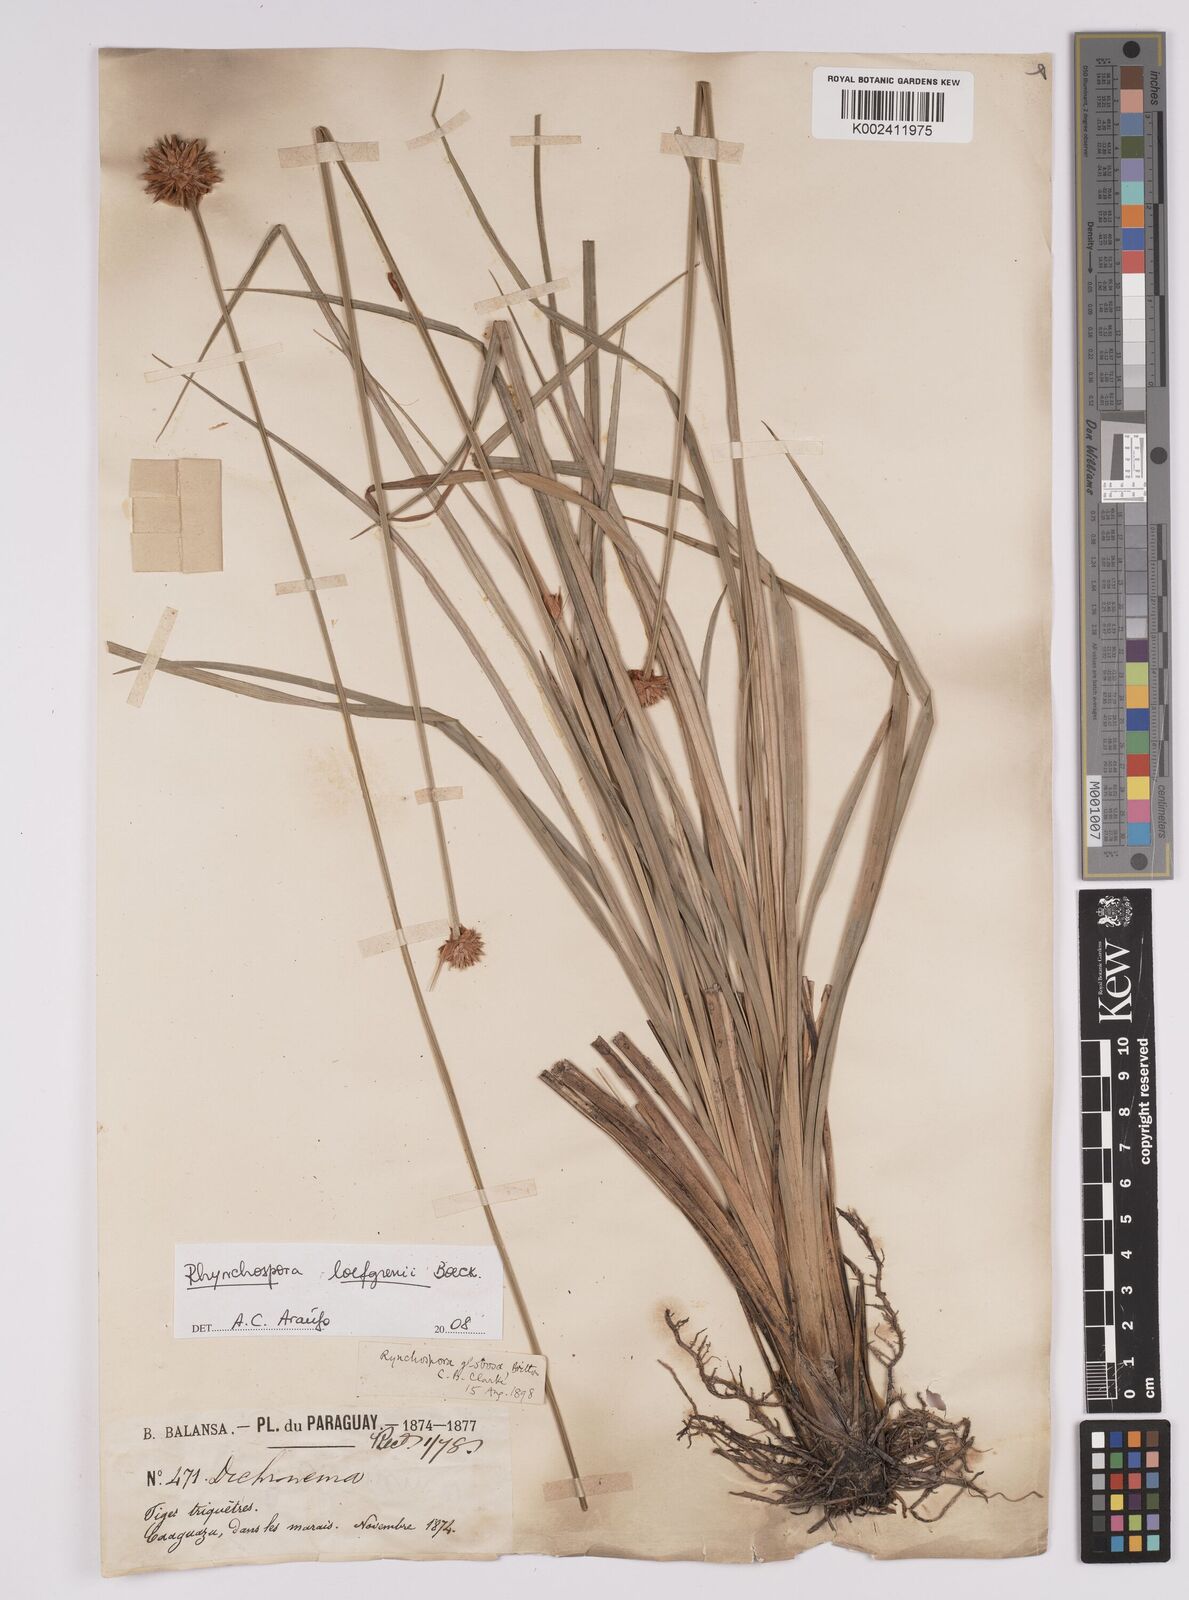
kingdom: Plantae
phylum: Tracheophyta
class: Liliopsida
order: Poales
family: Cyperaceae
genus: Rhynchospora
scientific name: Rhynchospora loefgrenii
